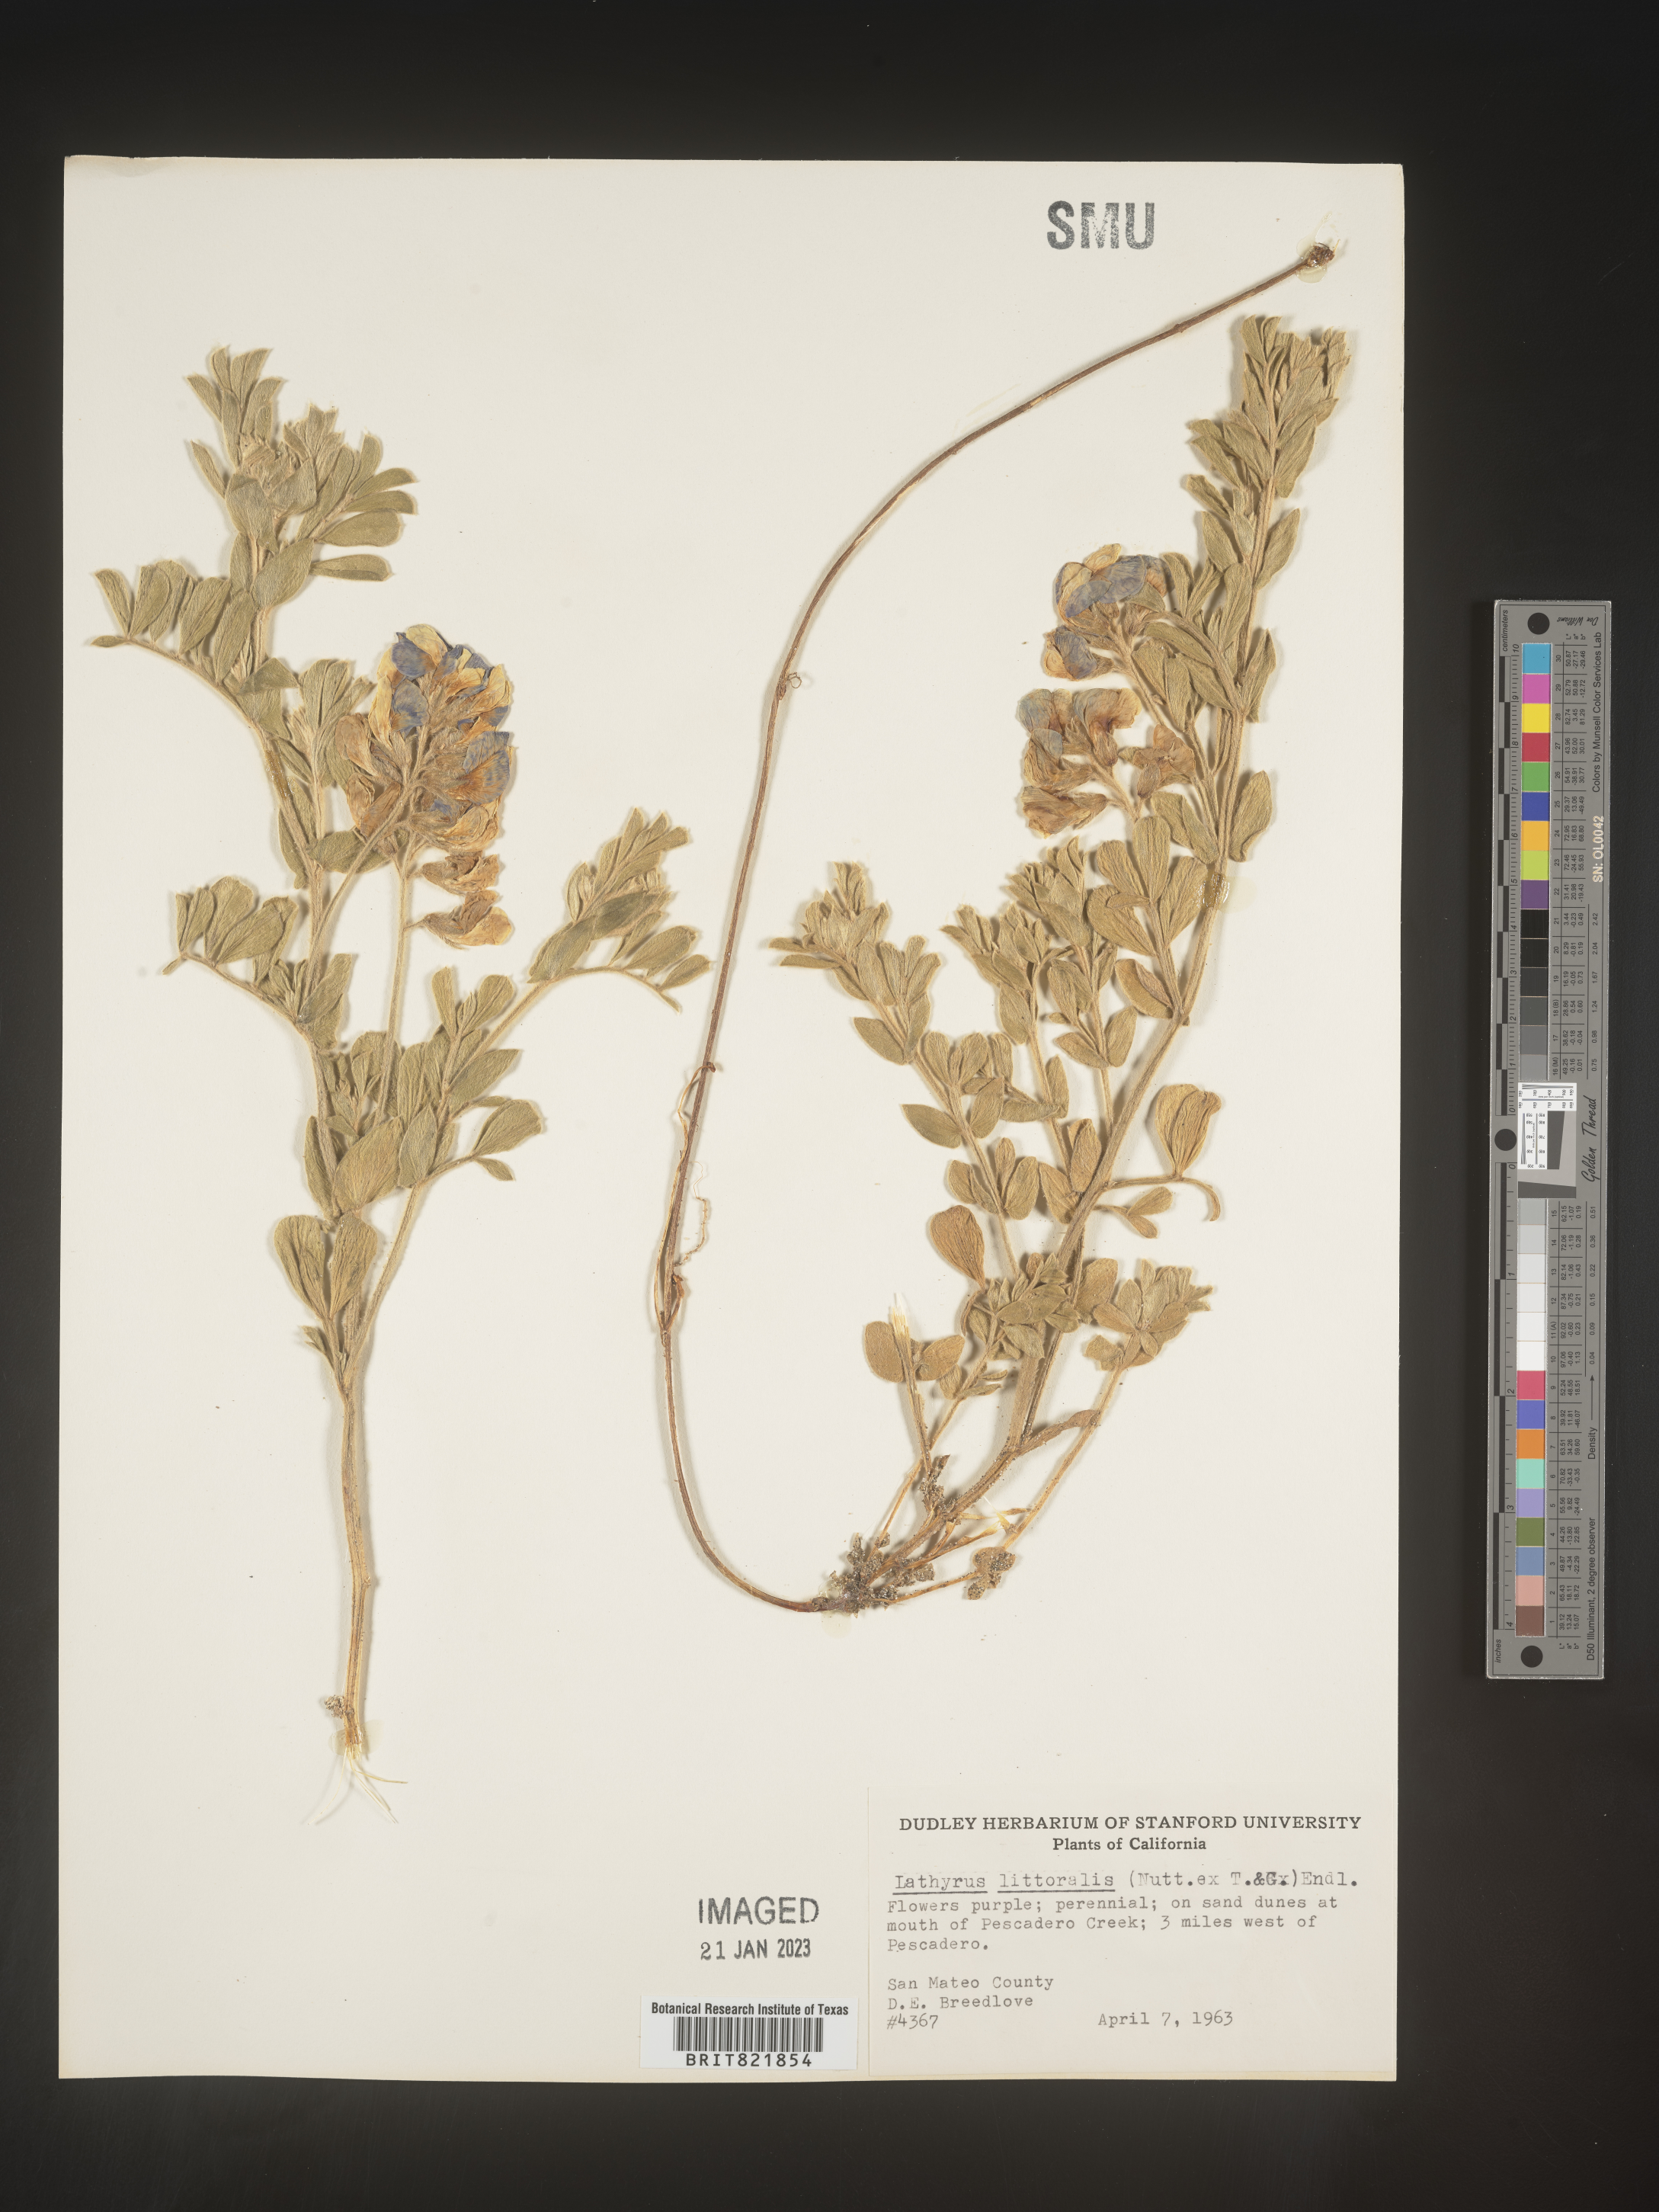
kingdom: Plantae
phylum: Tracheophyta
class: Magnoliopsida
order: Fabales
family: Fabaceae
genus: Lathyrus
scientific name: Lathyrus
